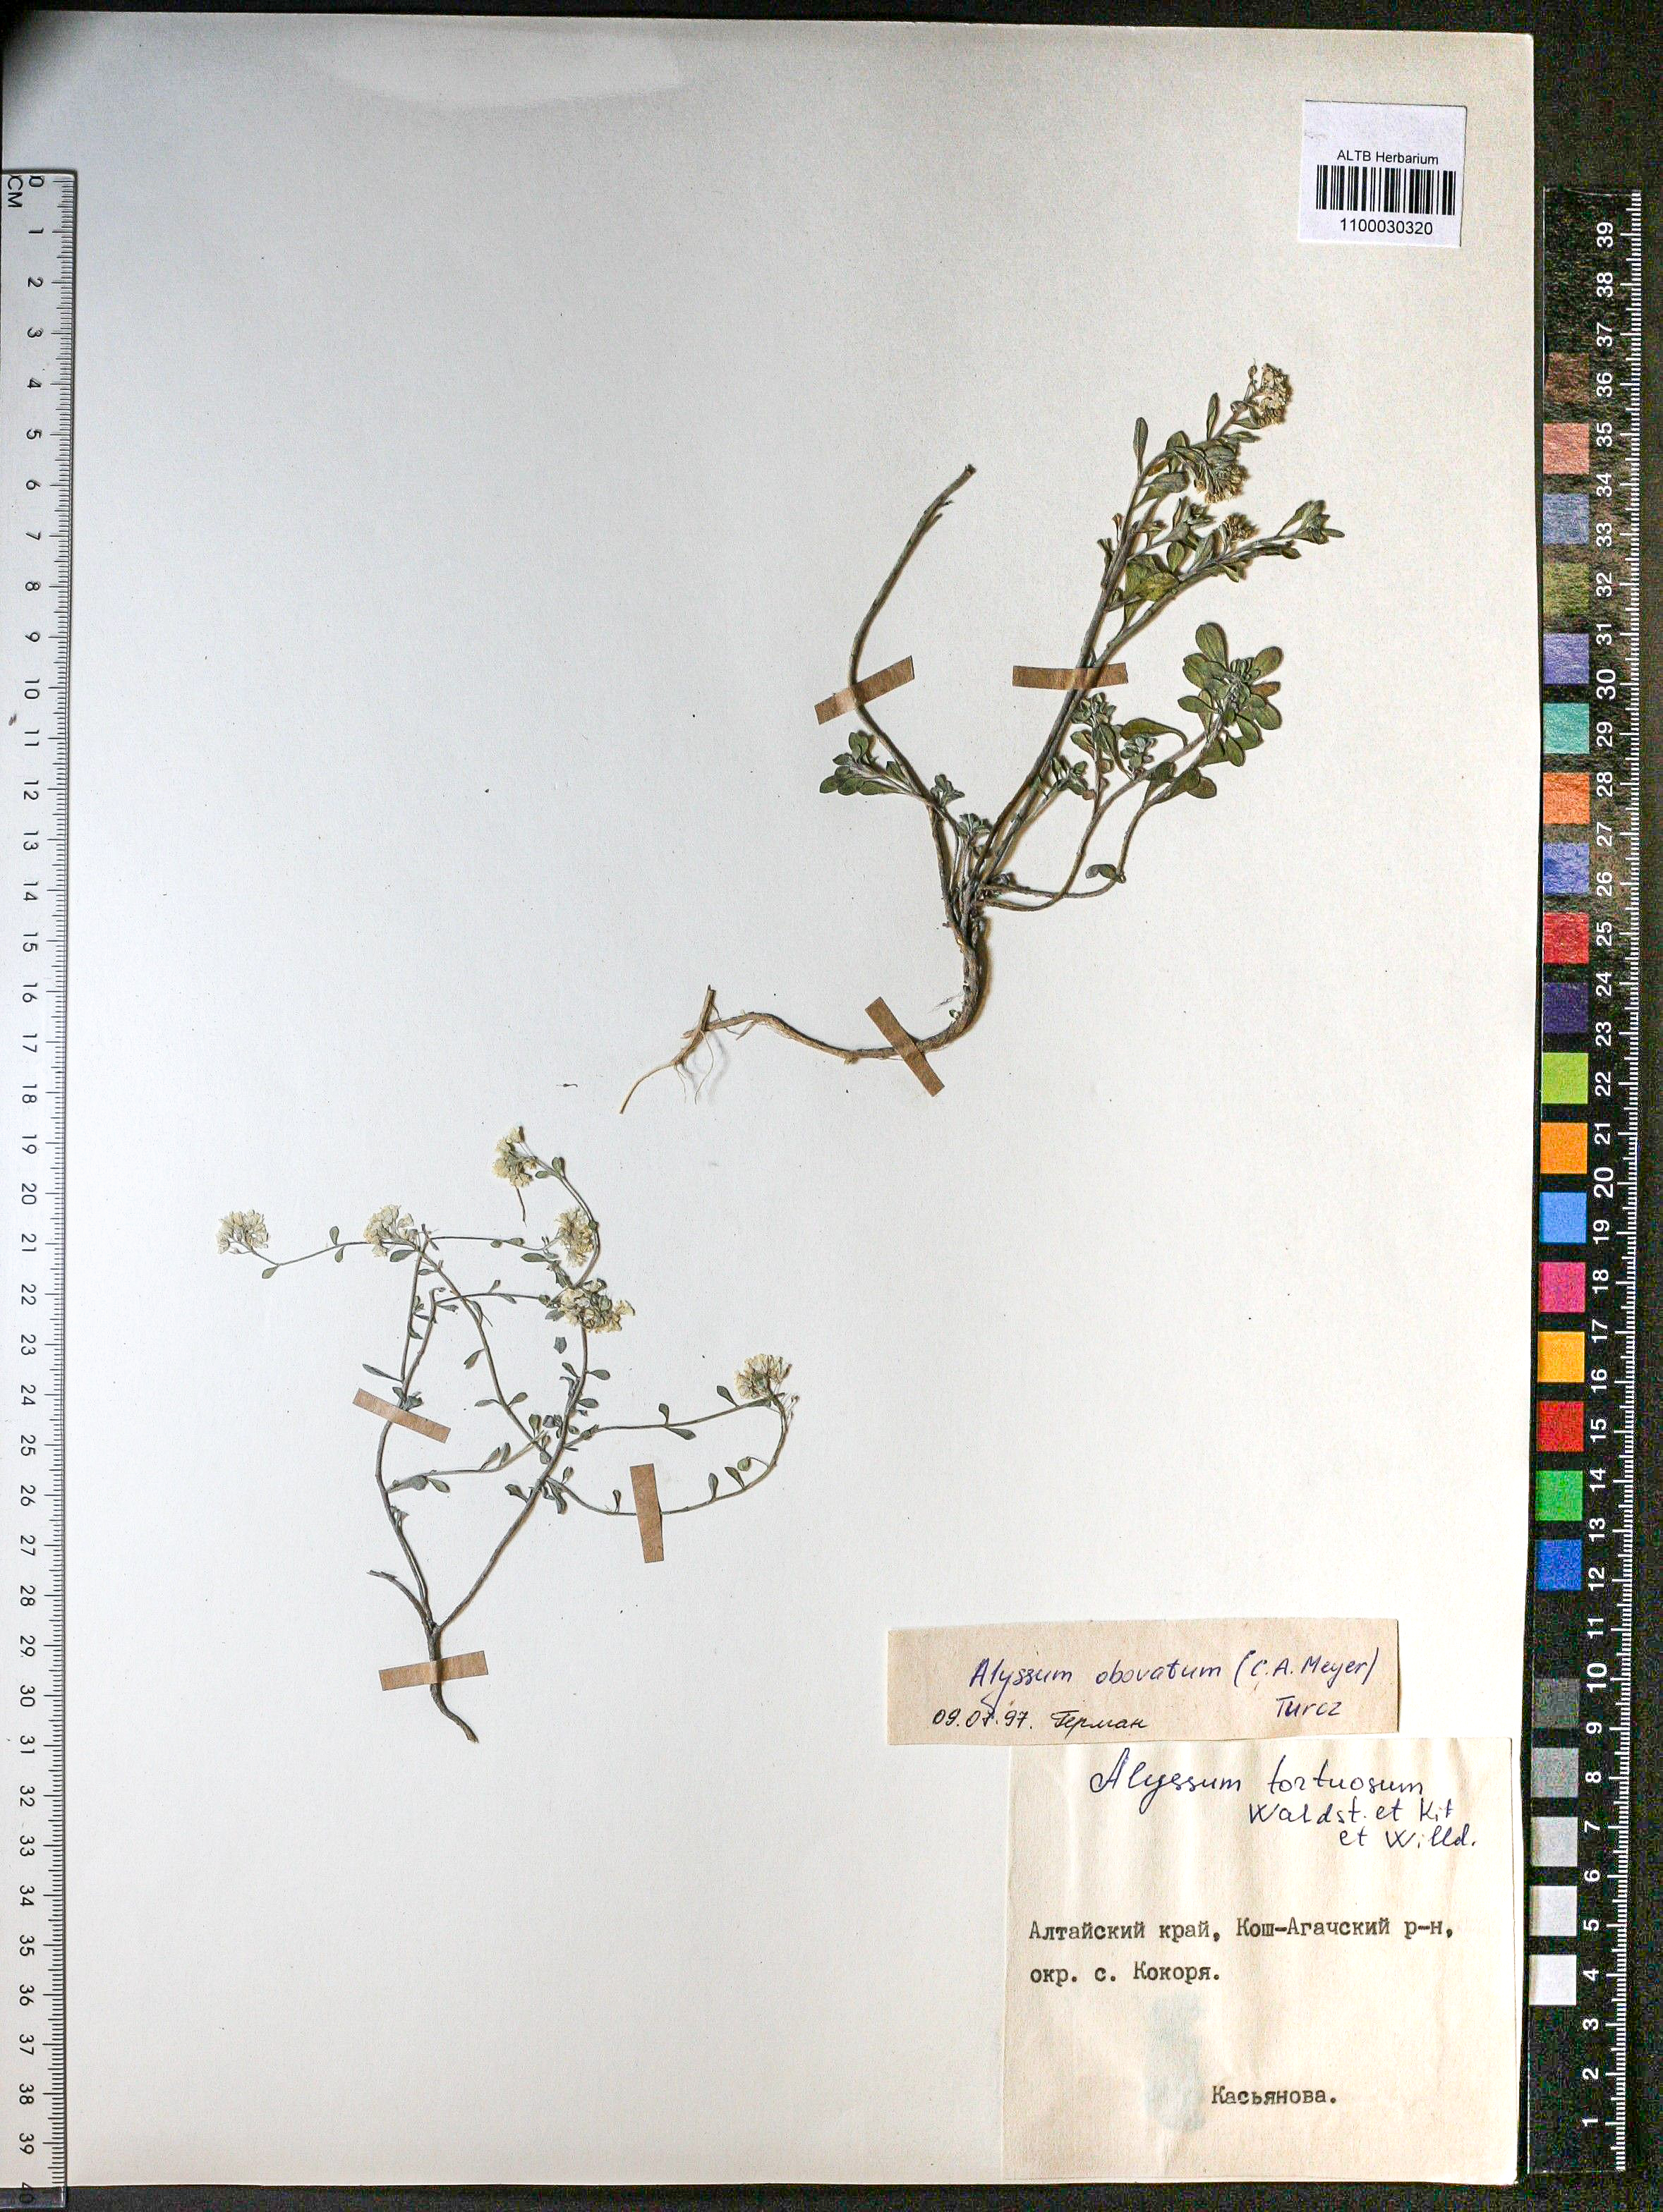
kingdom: Plantae
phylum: Tracheophyta
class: Magnoliopsida
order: Brassicales
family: Brassicaceae
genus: Odontarrhena
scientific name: Odontarrhena obovata
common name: American alyssum
